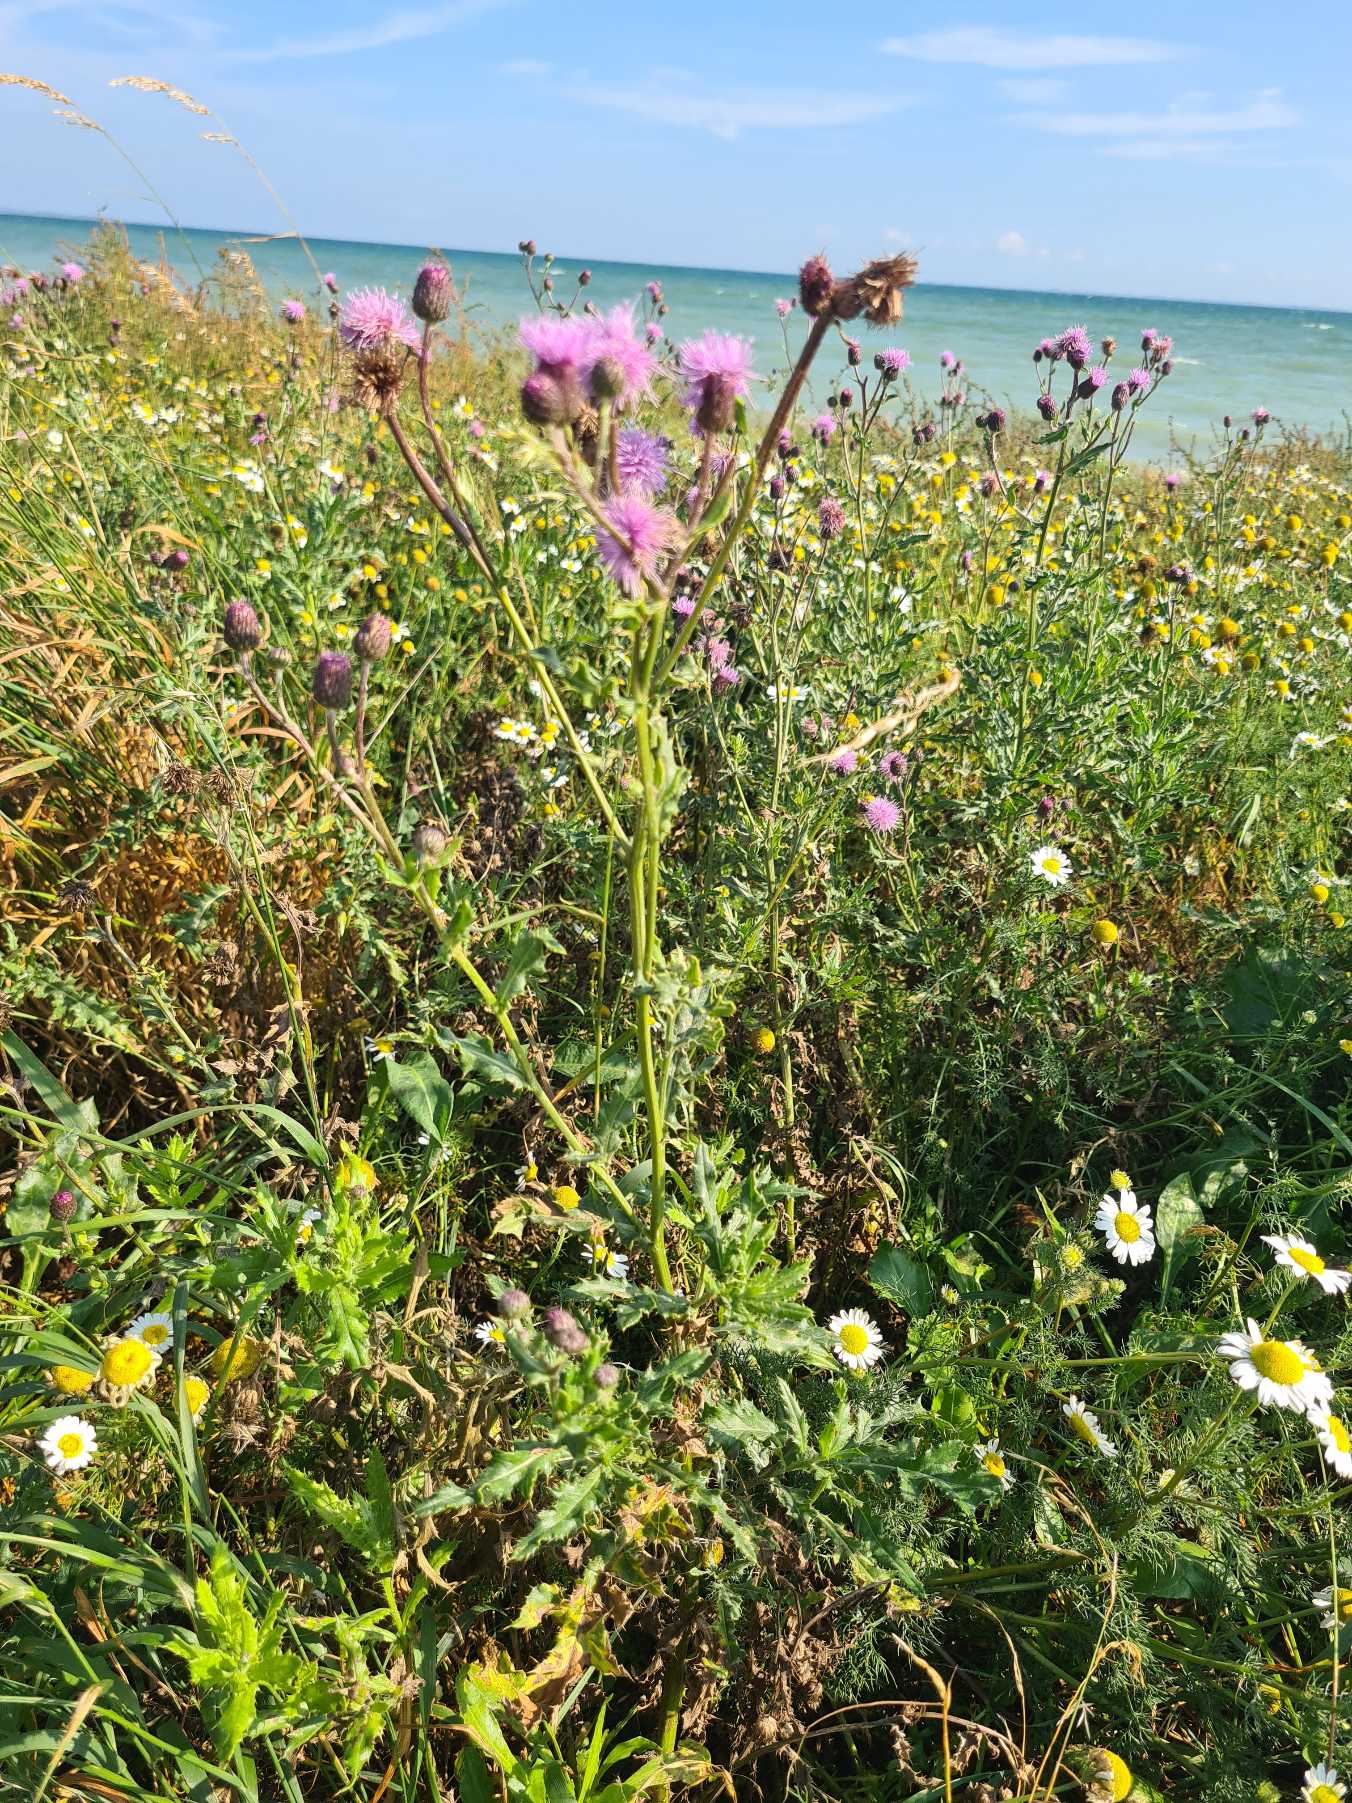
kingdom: Plantae
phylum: Tracheophyta
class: Magnoliopsida
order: Asterales
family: Asteraceae
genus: Cirsium
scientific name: Cirsium arvense
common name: Ager-tidsel
